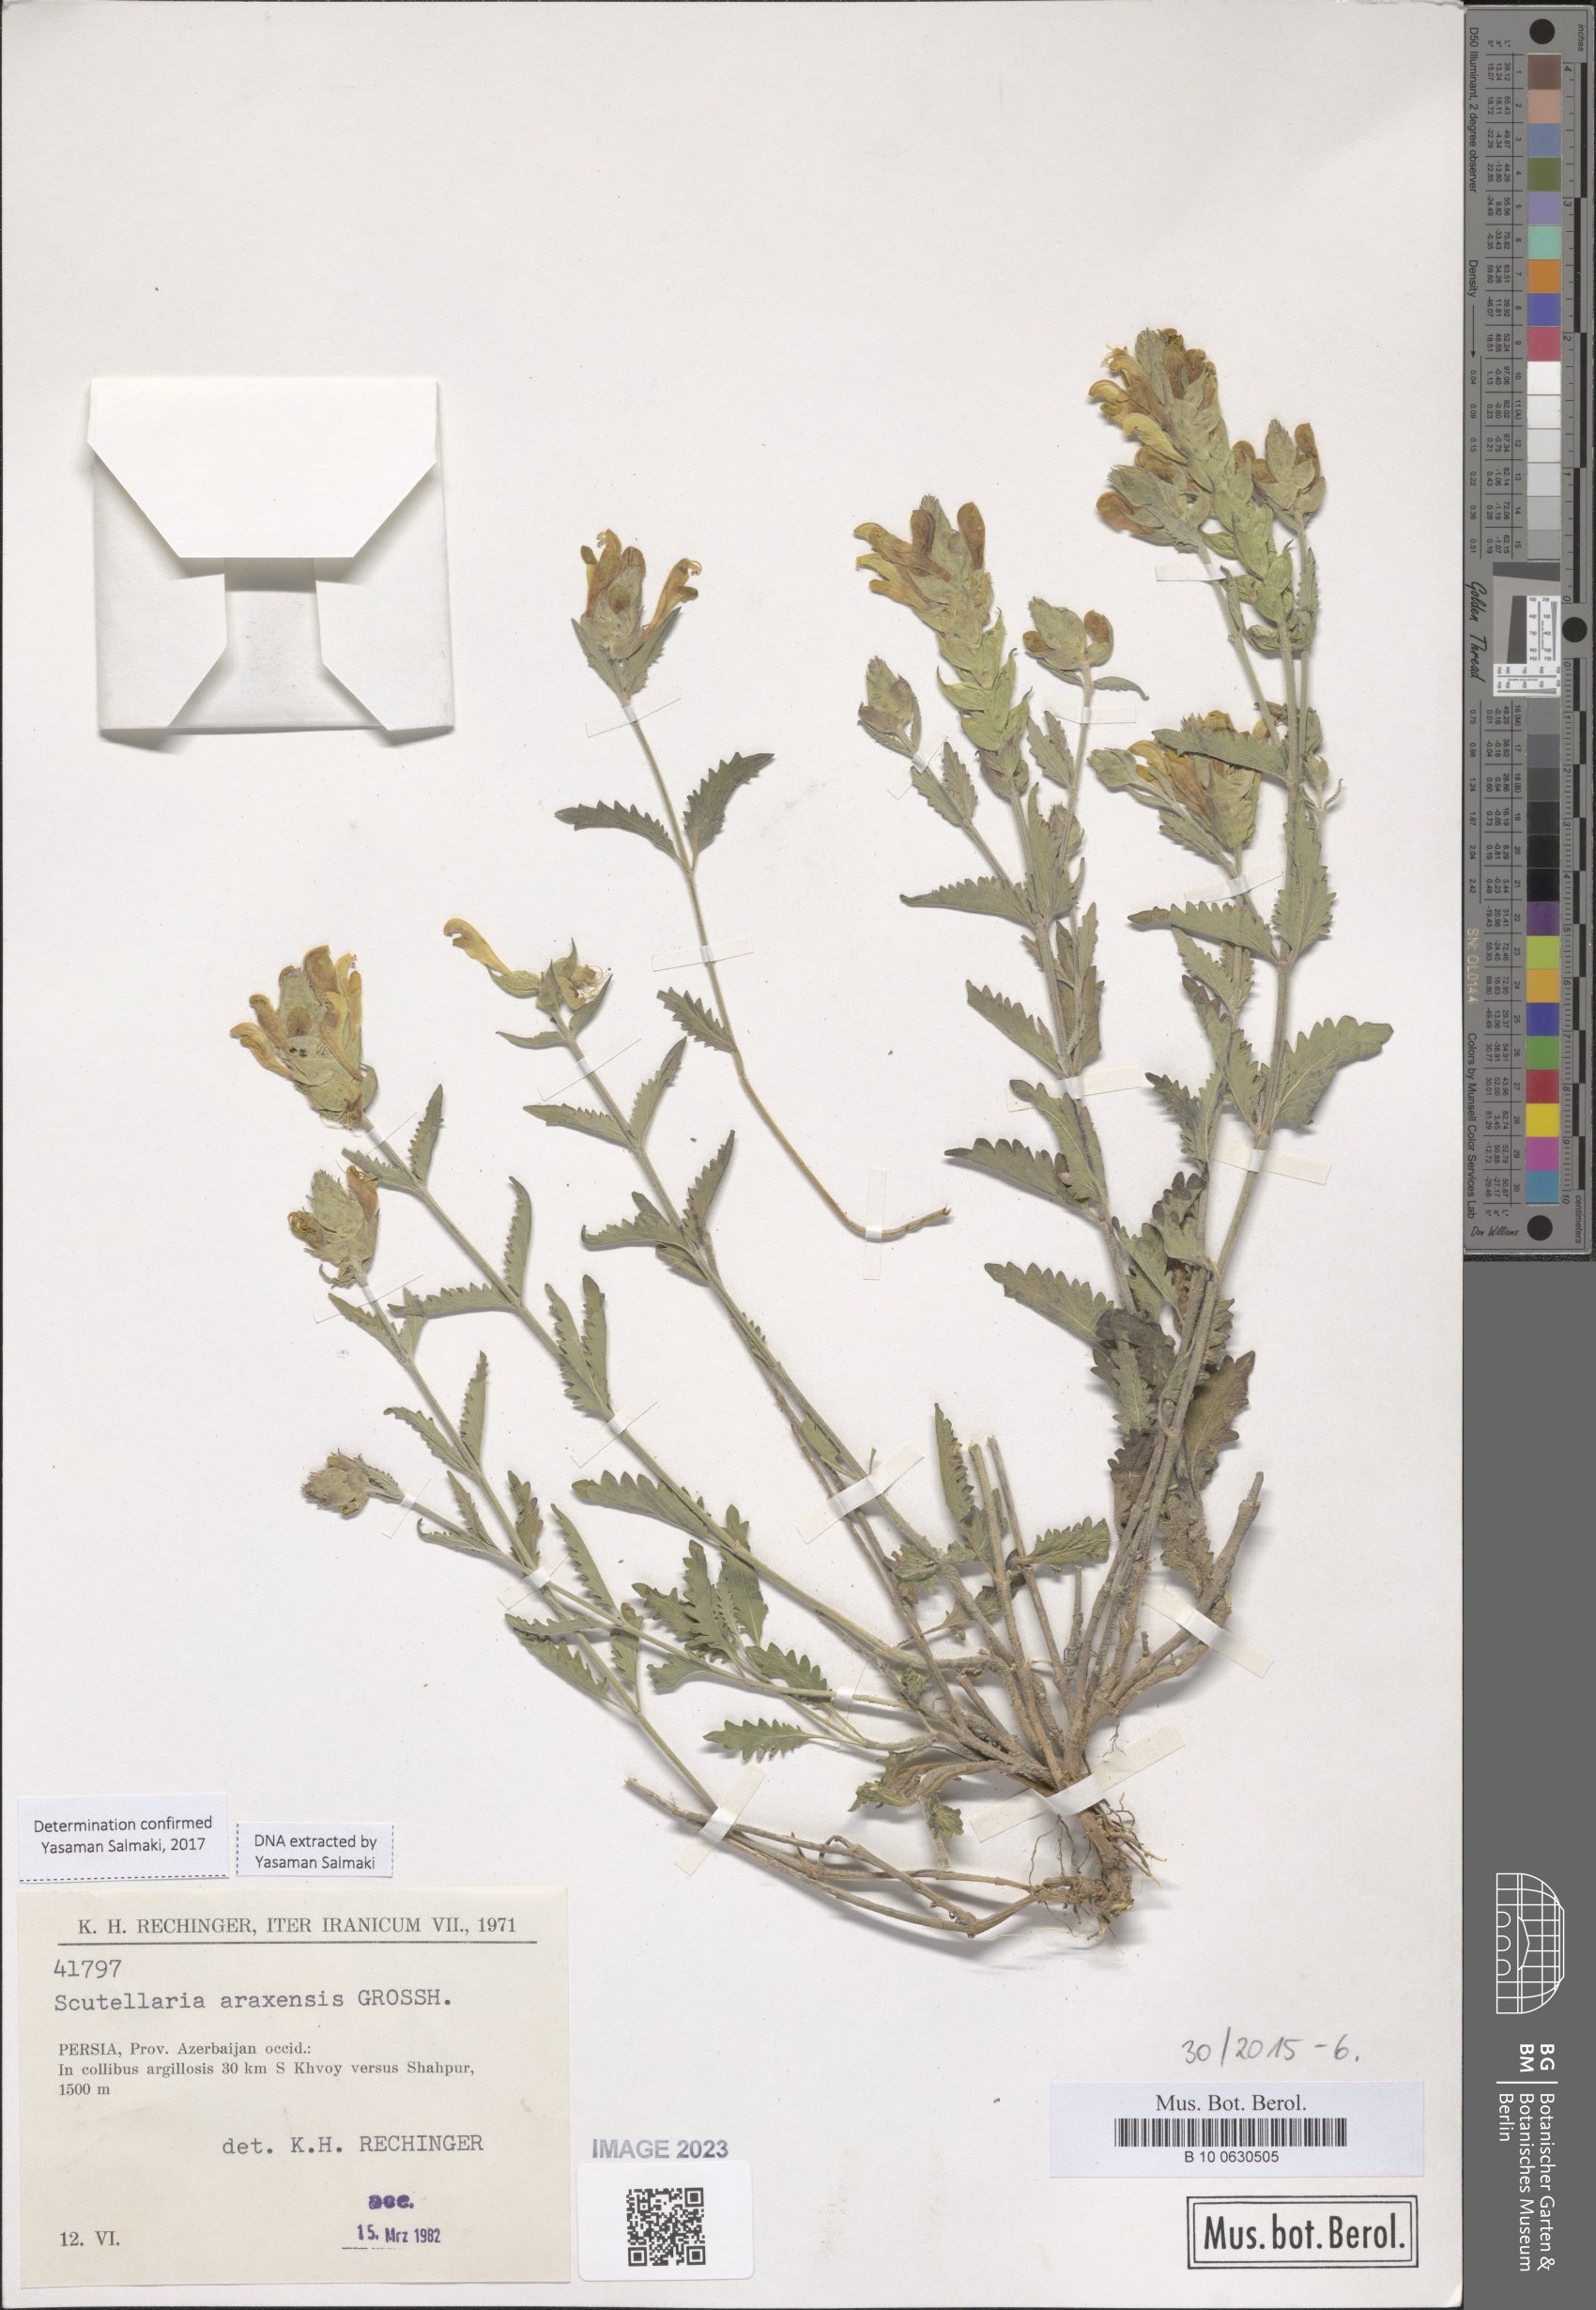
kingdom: Plantae
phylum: Tracheophyta
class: Magnoliopsida
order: Lamiales
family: Lamiaceae
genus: Scutellaria
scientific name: Scutellaria araxensis
